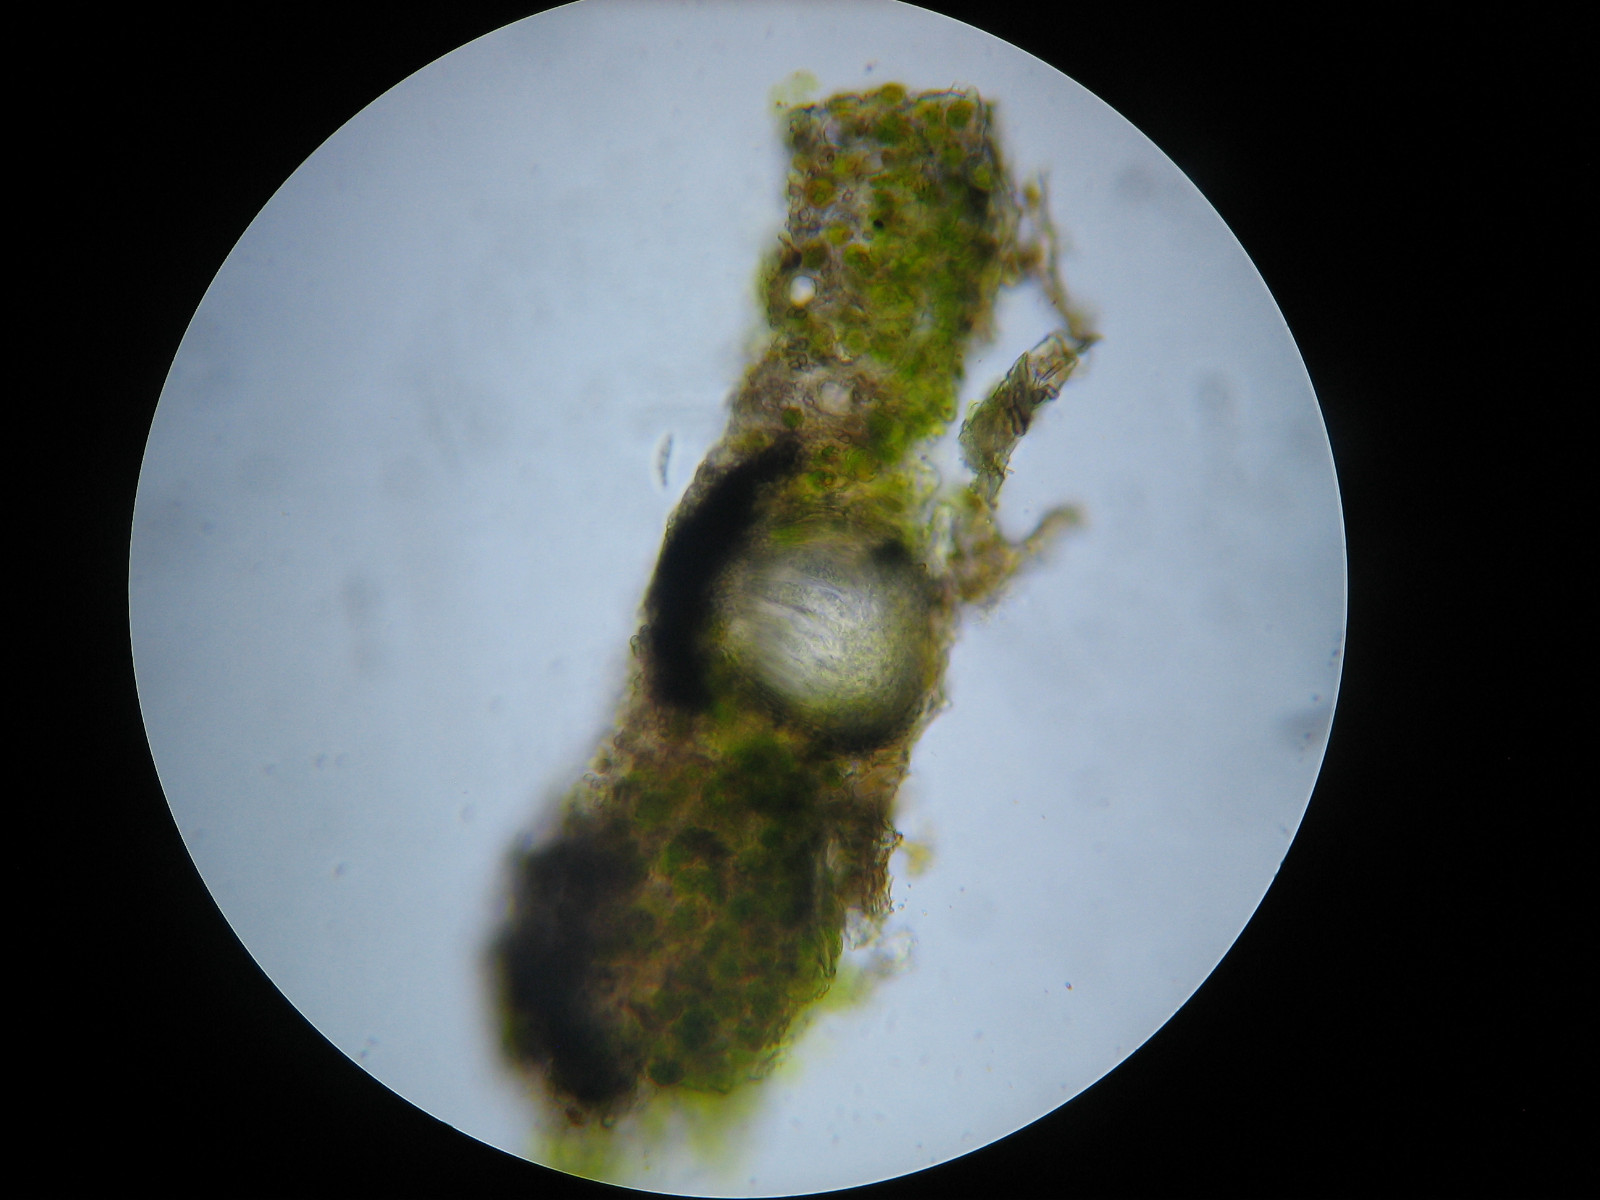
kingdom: Fungi
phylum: Ascomycota
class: Lecanoromycetes
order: Ostropales
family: Porinaceae
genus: Pseudosagedia
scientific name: Pseudosagedia aenea
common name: grønlig porina
